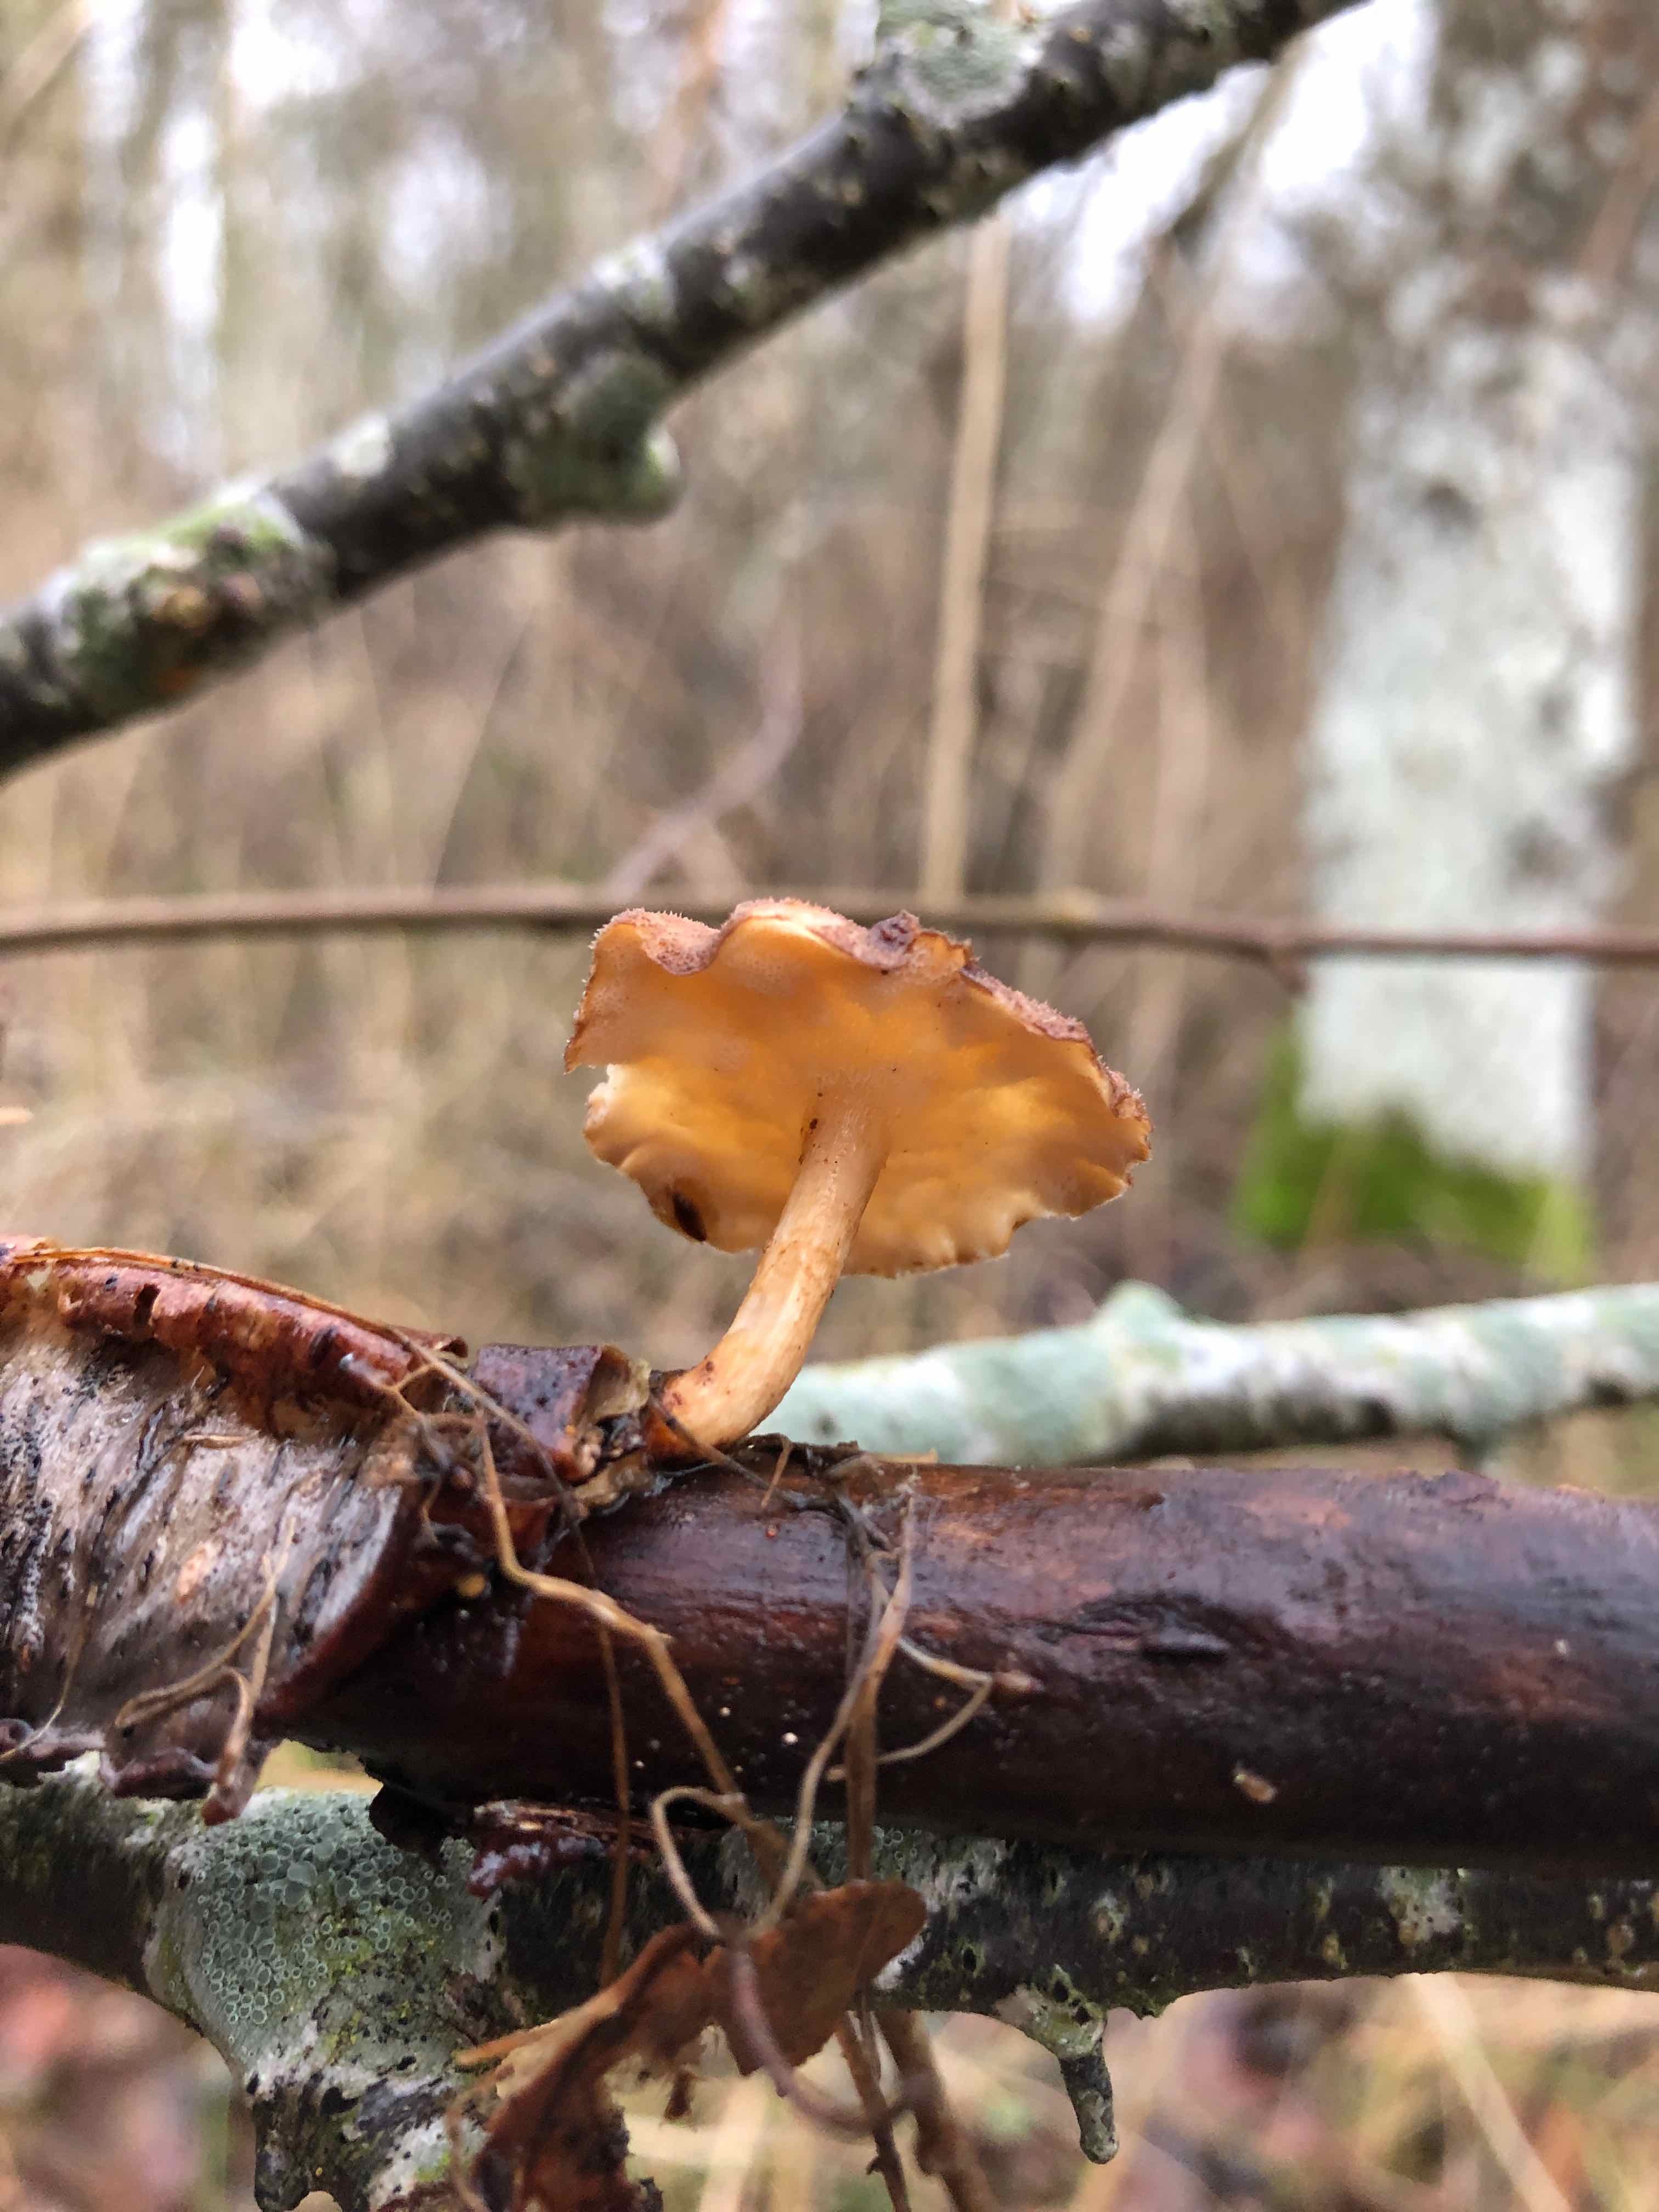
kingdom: Fungi
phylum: Basidiomycota
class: Agaricomycetes
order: Polyporales
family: Polyporaceae
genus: Lentinus
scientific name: Lentinus brumalis
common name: vinter-stilkporesvamp
